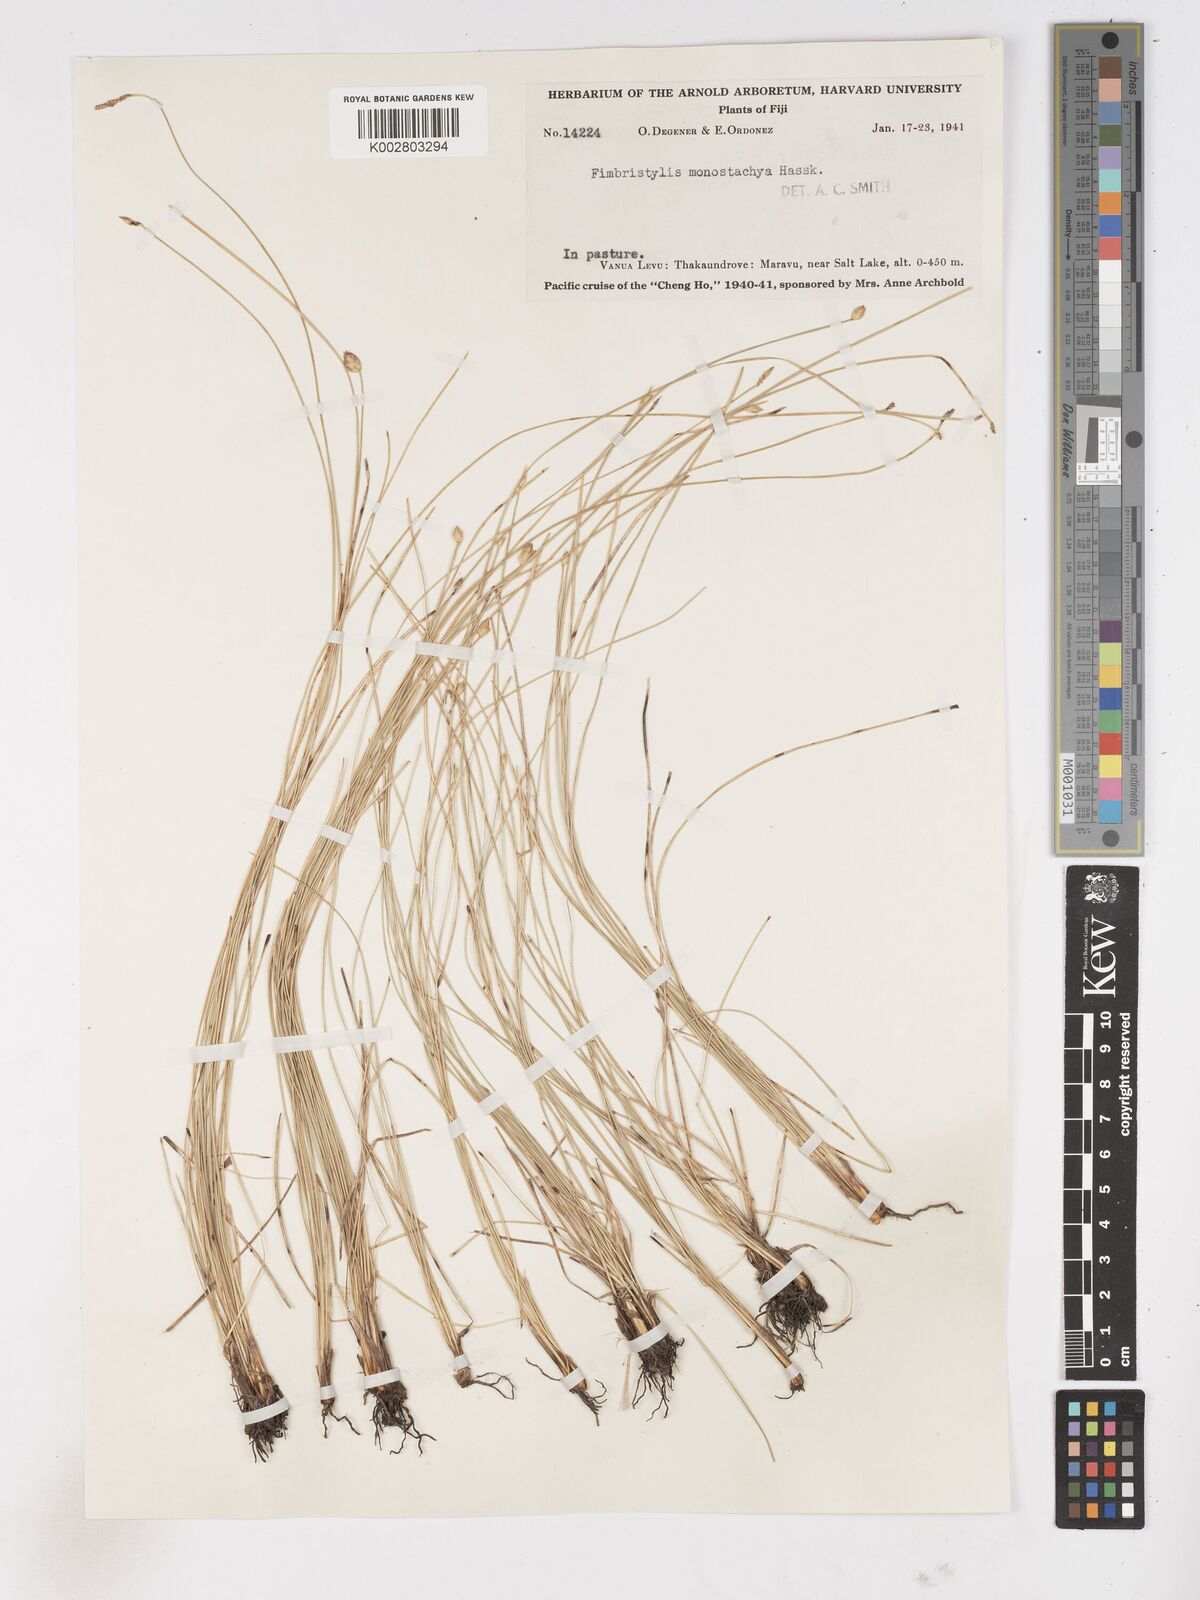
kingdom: Plantae
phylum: Tracheophyta
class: Liliopsida
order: Poales
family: Cyperaceae
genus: Abildgaardia
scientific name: Abildgaardia ovata
